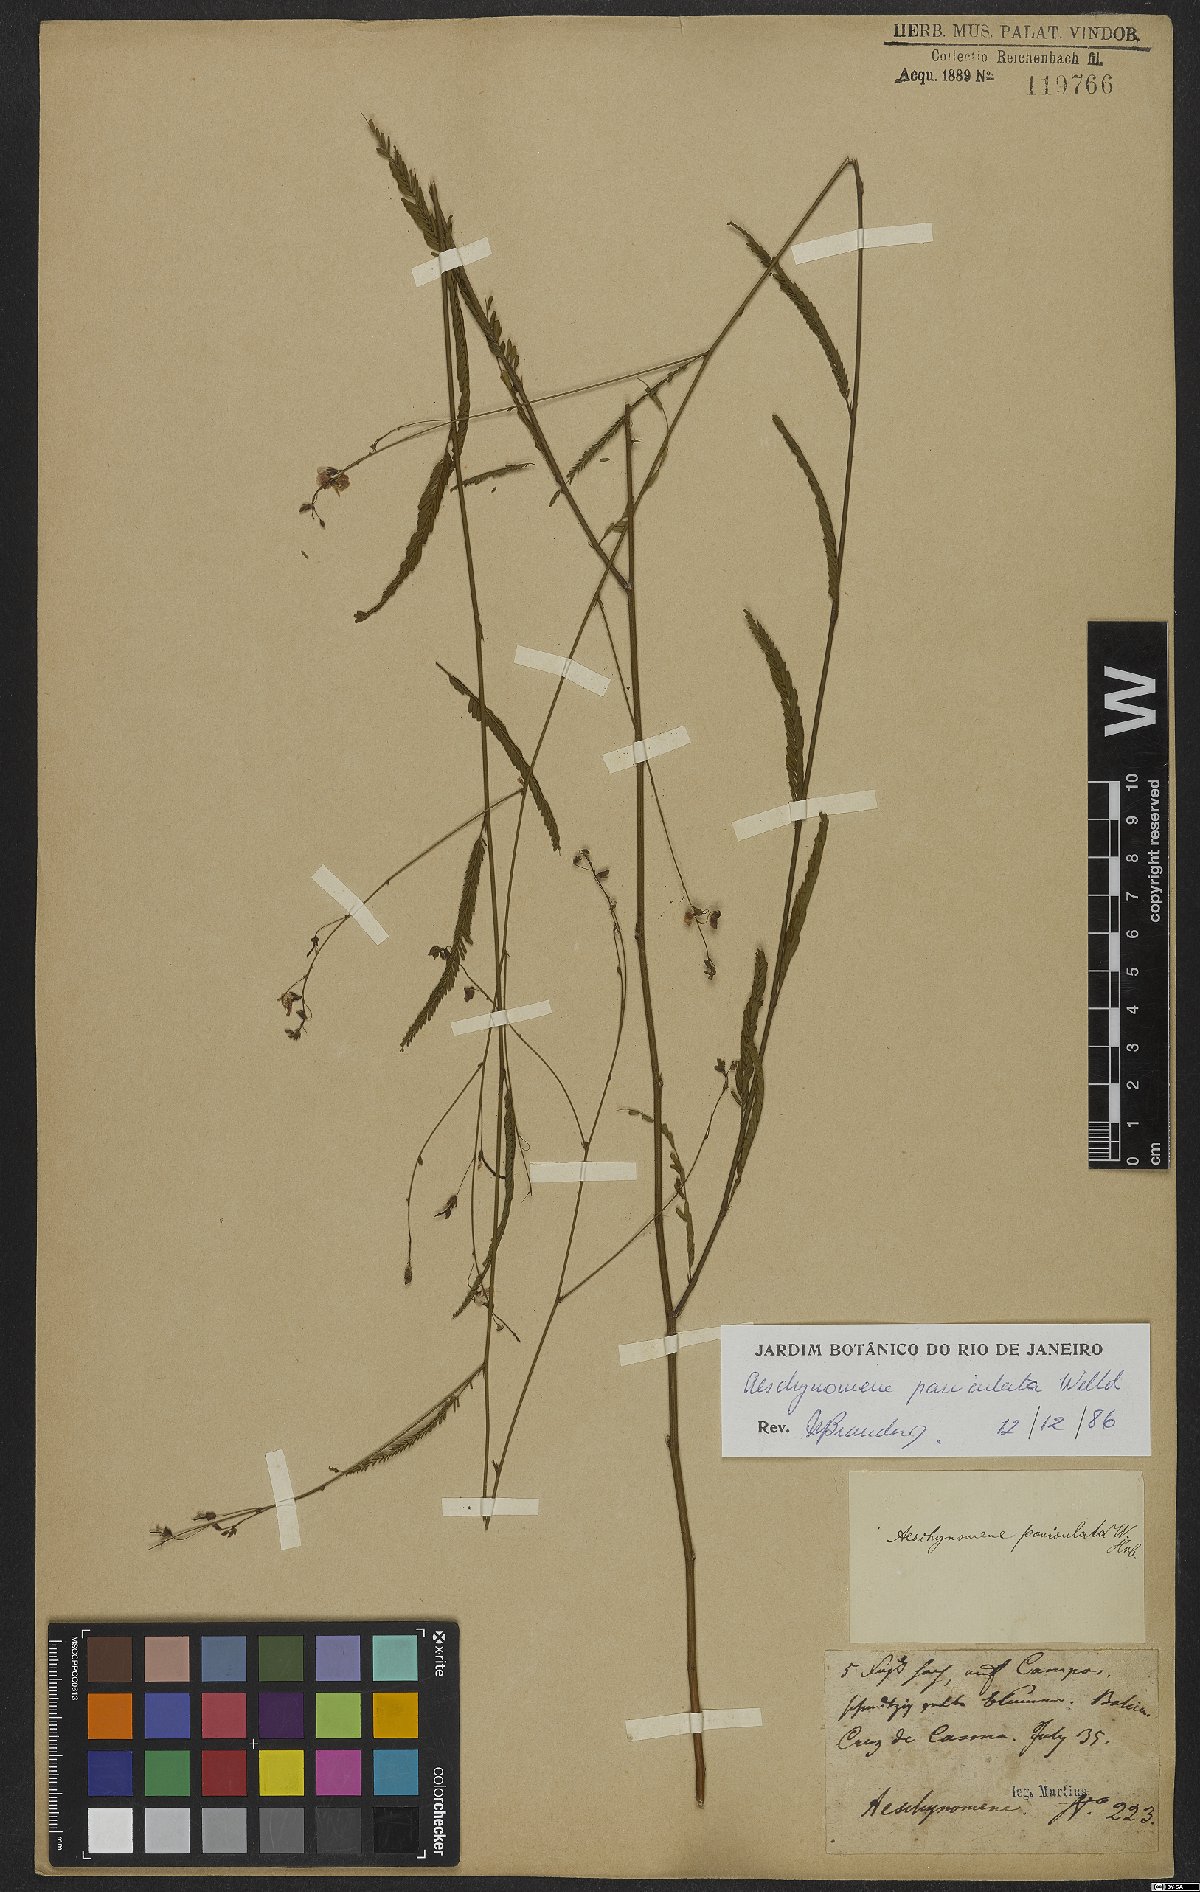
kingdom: Plantae
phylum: Tracheophyta
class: Magnoliopsida
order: Fabales
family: Fabaceae
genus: Ctenodon
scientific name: Ctenodon paniculatus
